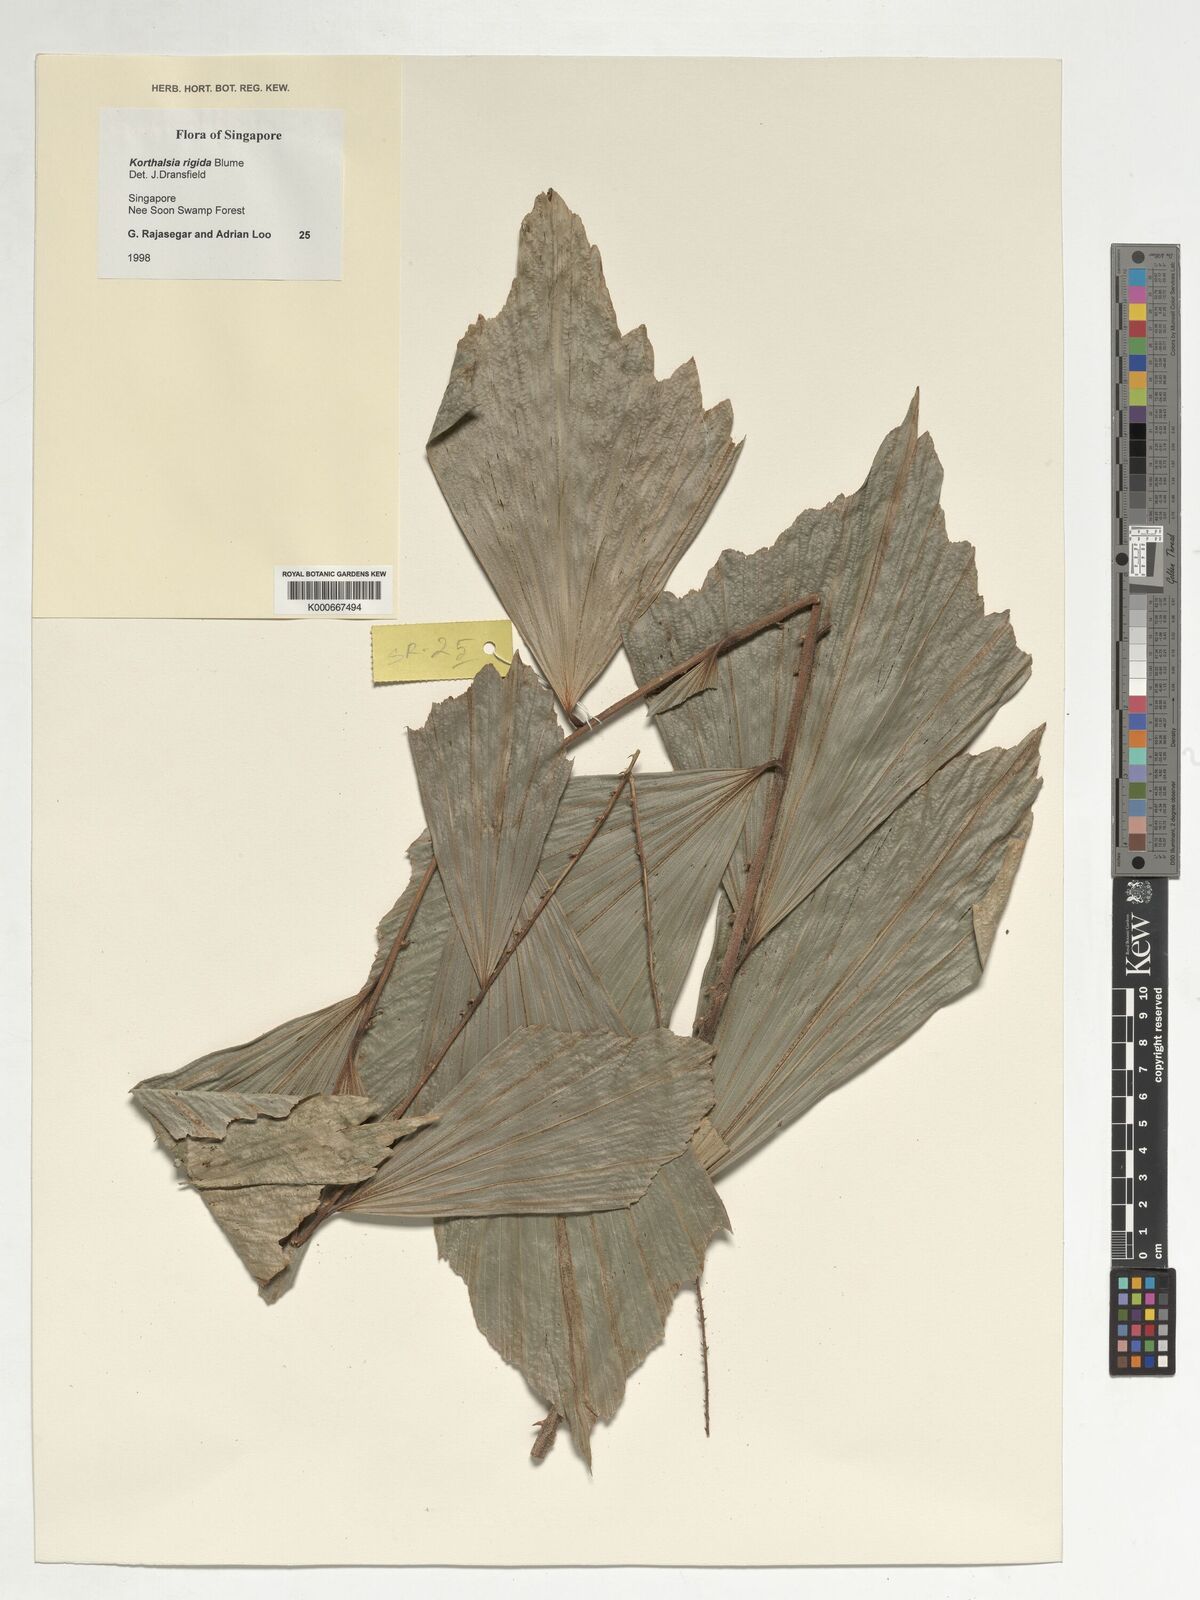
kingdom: Plantae
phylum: Tracheophyta
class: Liliopsida
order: Arecales
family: Arecaceae
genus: Korthalsia
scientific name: Korthalsia rigida
